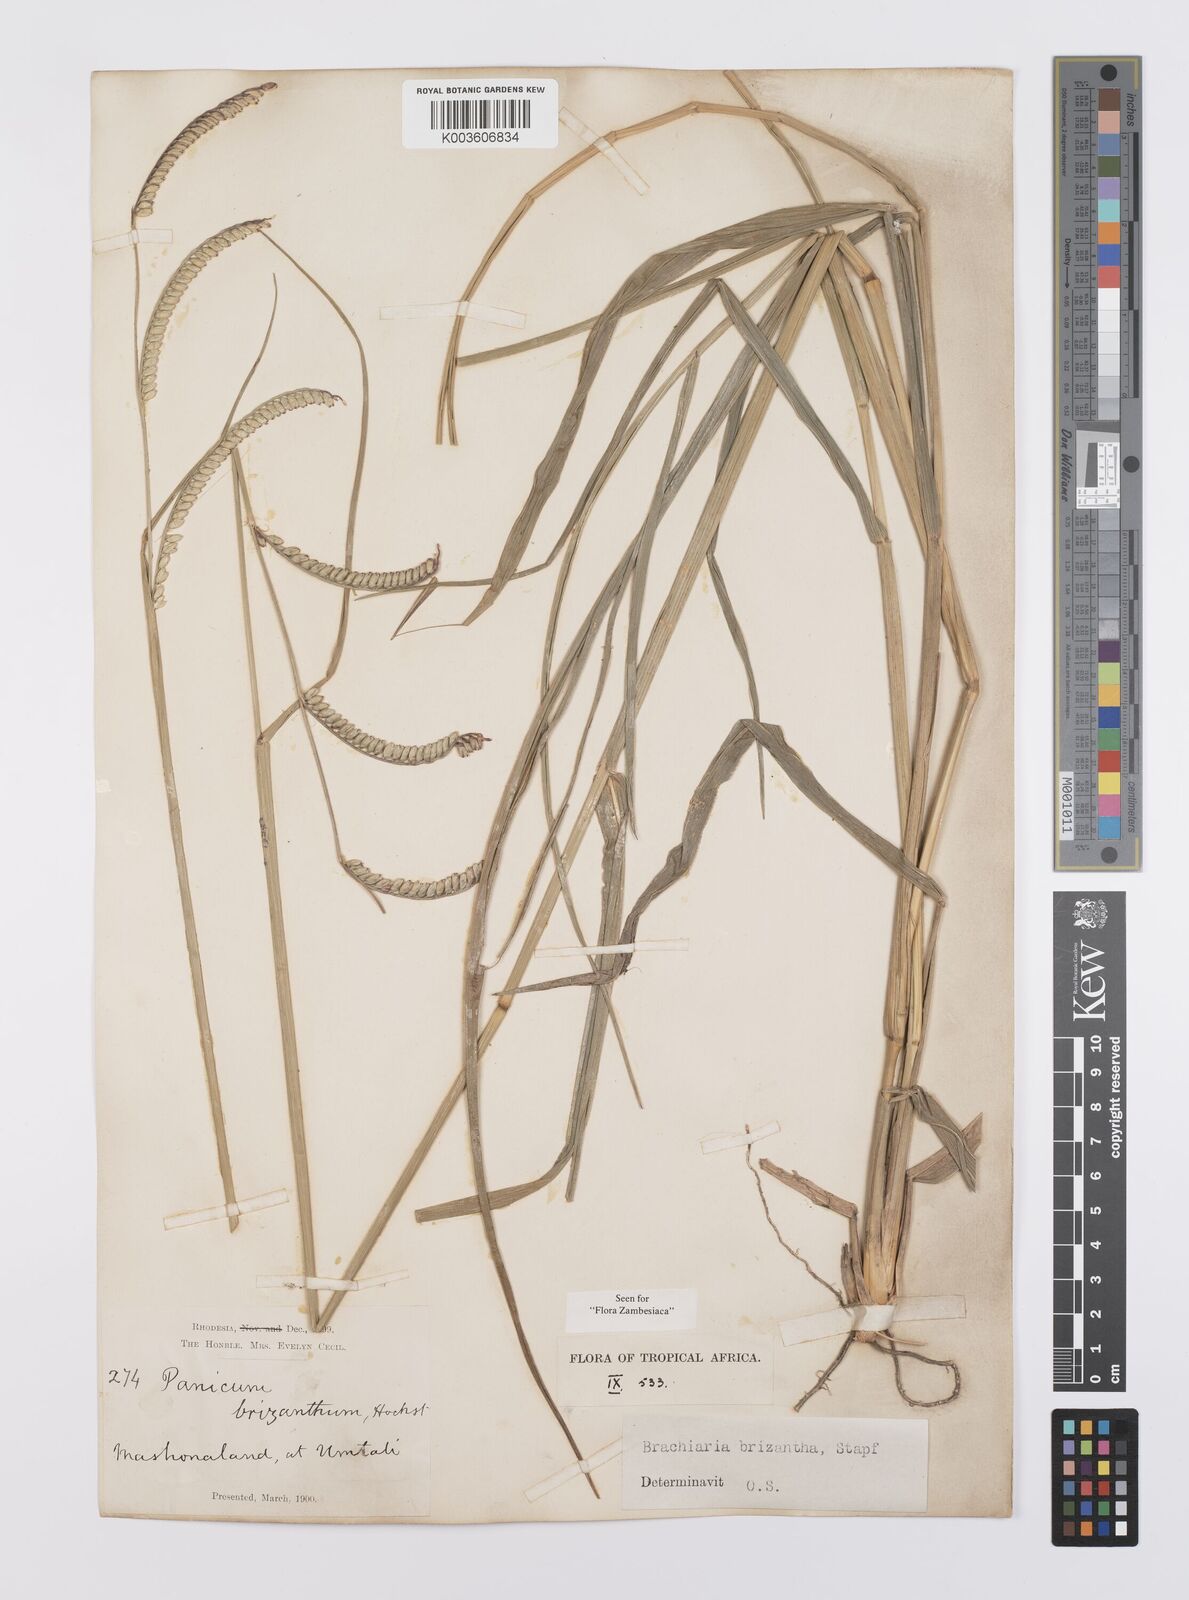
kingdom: Plantae
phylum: Tracheophyta
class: Liliopsida
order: Poales
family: Poaceae
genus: Urochloa
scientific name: Urochloa brizantha
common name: Palisade signalgrass
